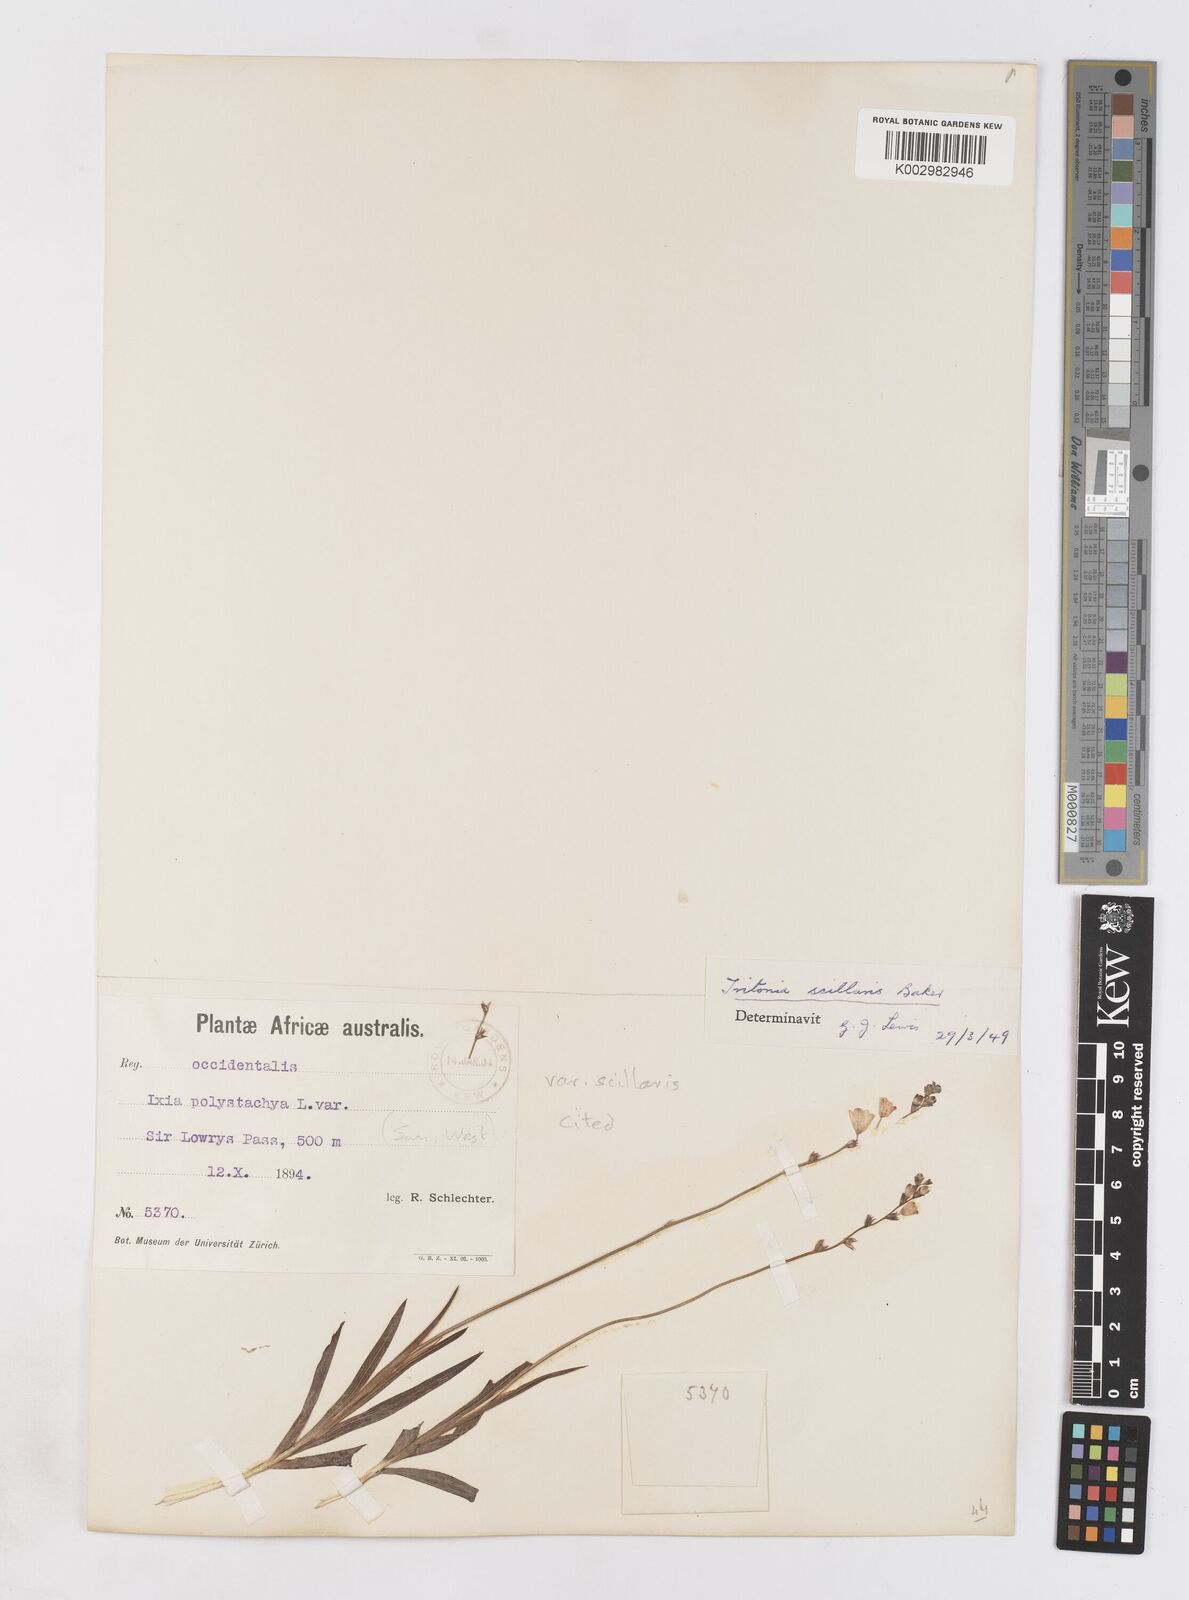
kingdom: Plantae
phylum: Tracheophyta
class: Liliopsida
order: Asparagales
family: Iridaceae
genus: Ixia
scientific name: Ixia scillaris
